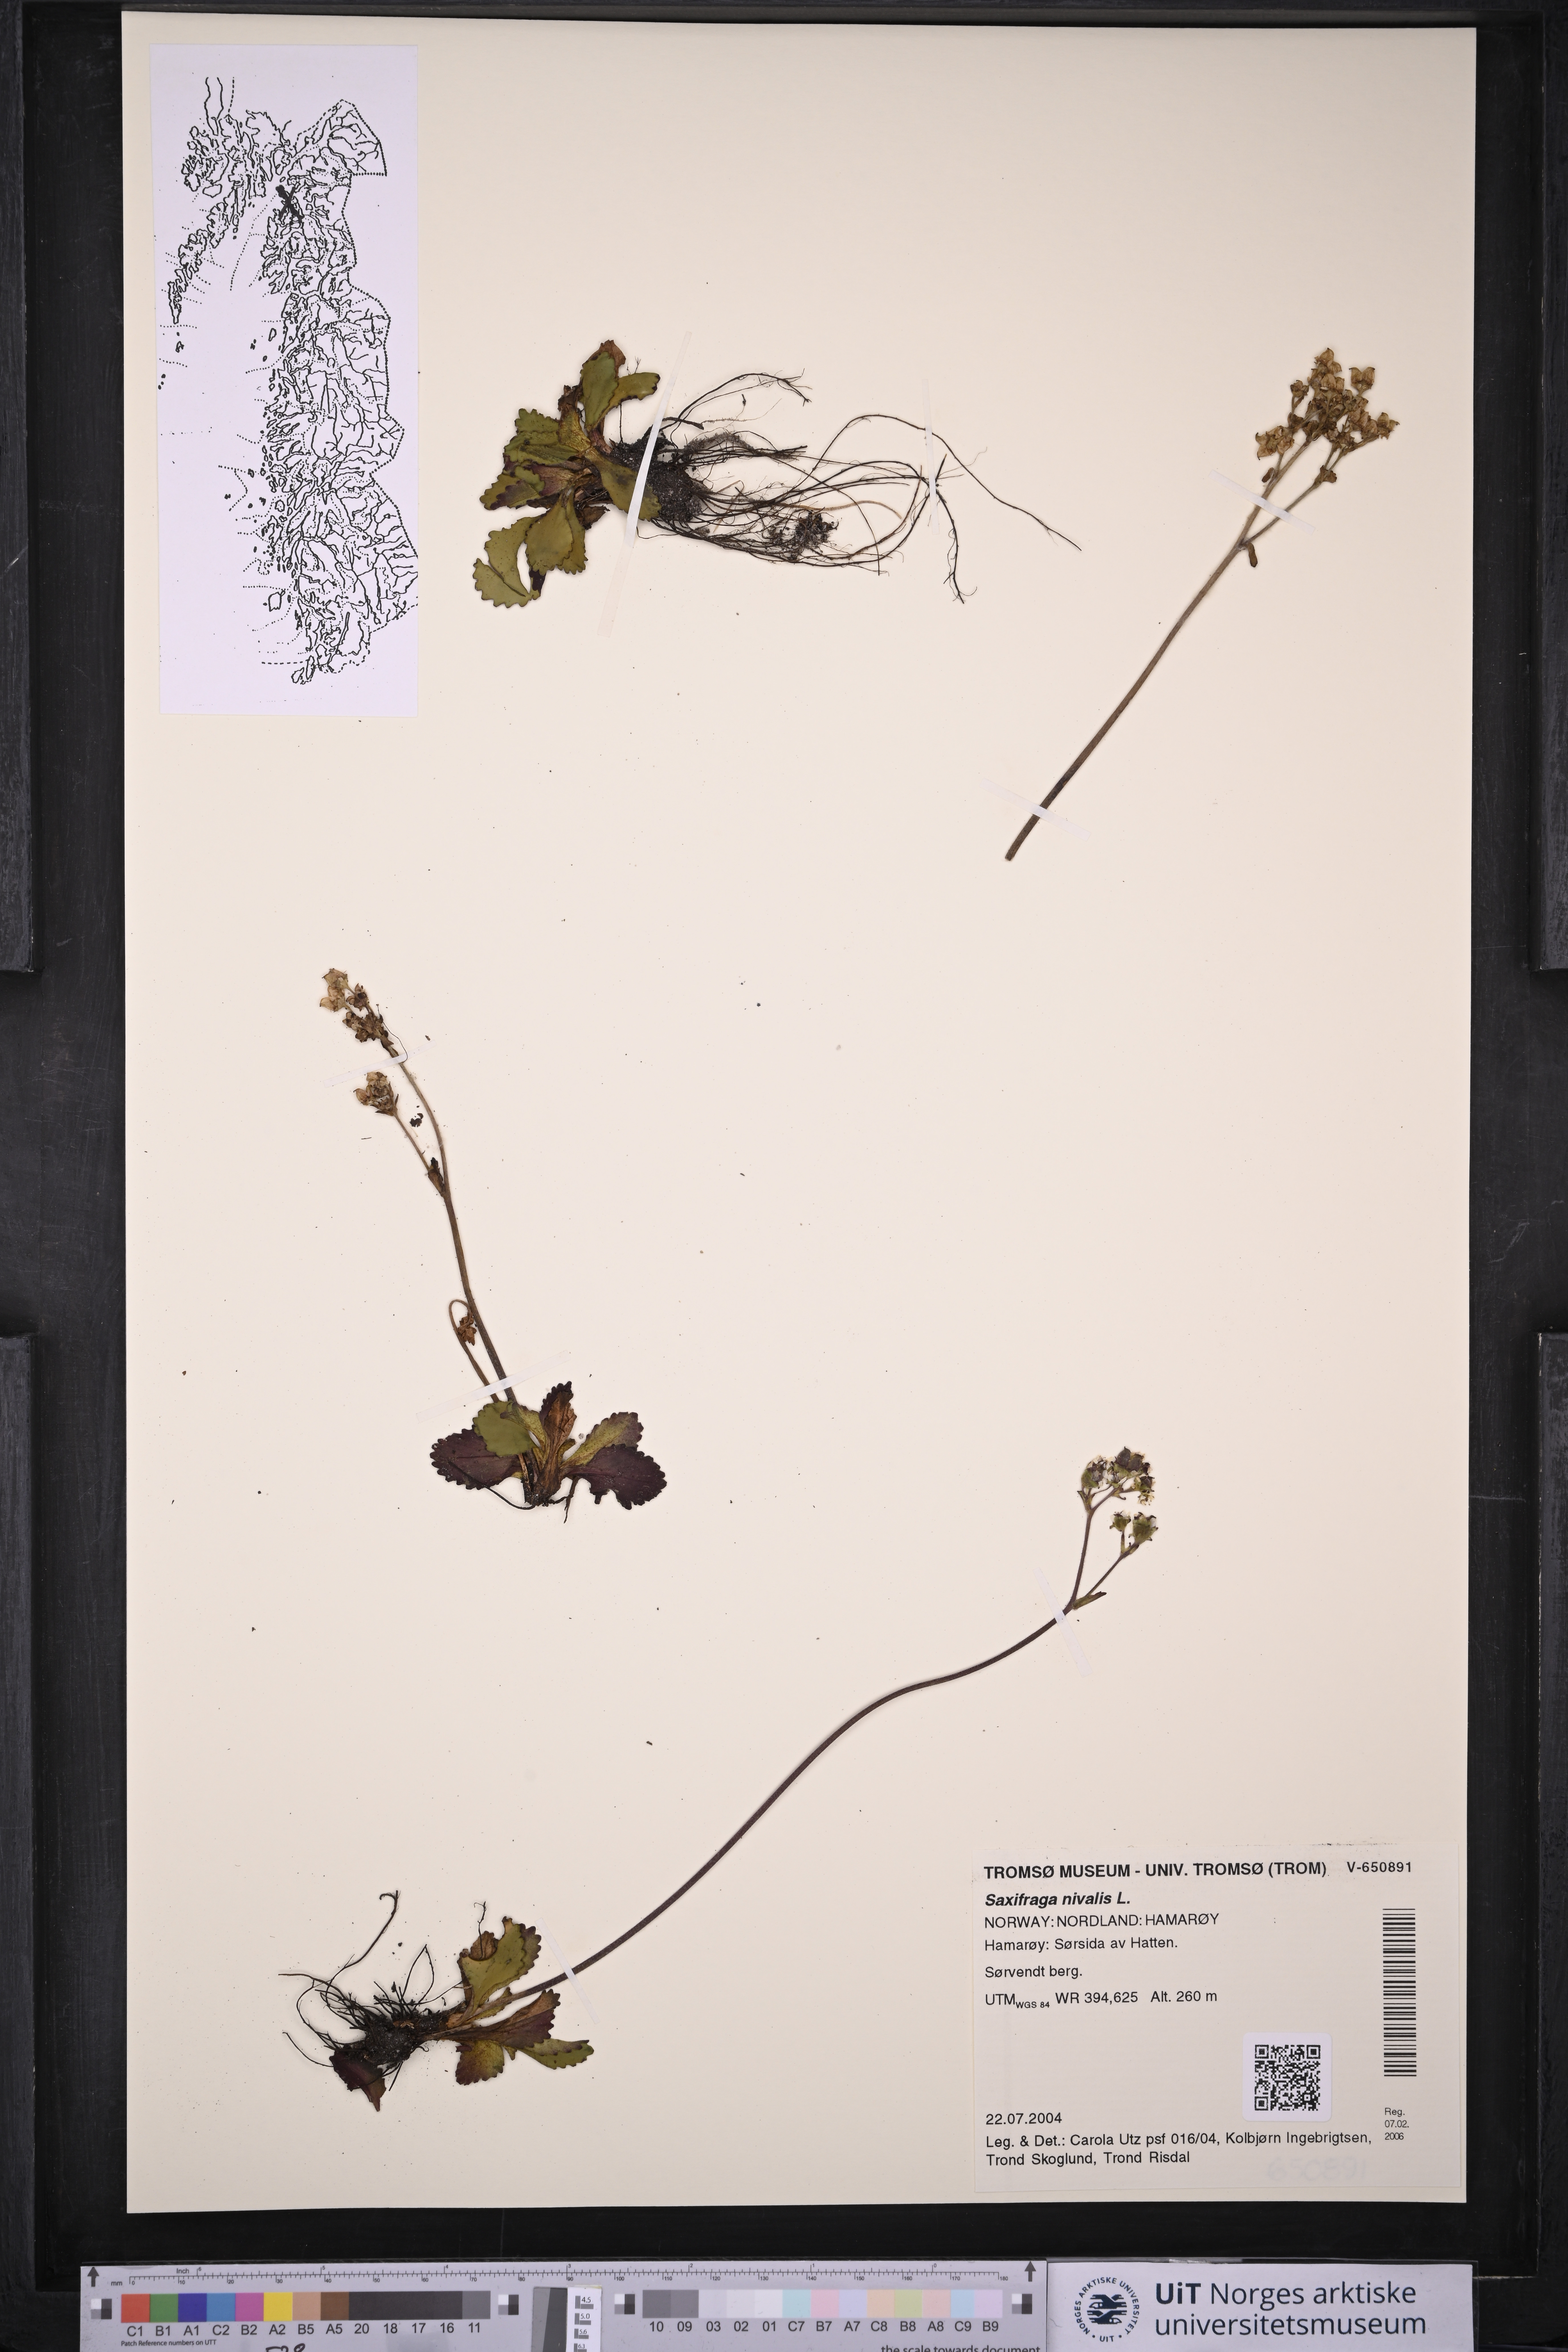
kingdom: Plantae
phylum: Tracheophyta
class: Magnoliopsida
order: Saxifragales
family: Saxifragaceae
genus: Micranthes
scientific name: Micranthes nivalis
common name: Alpine saxifrage
